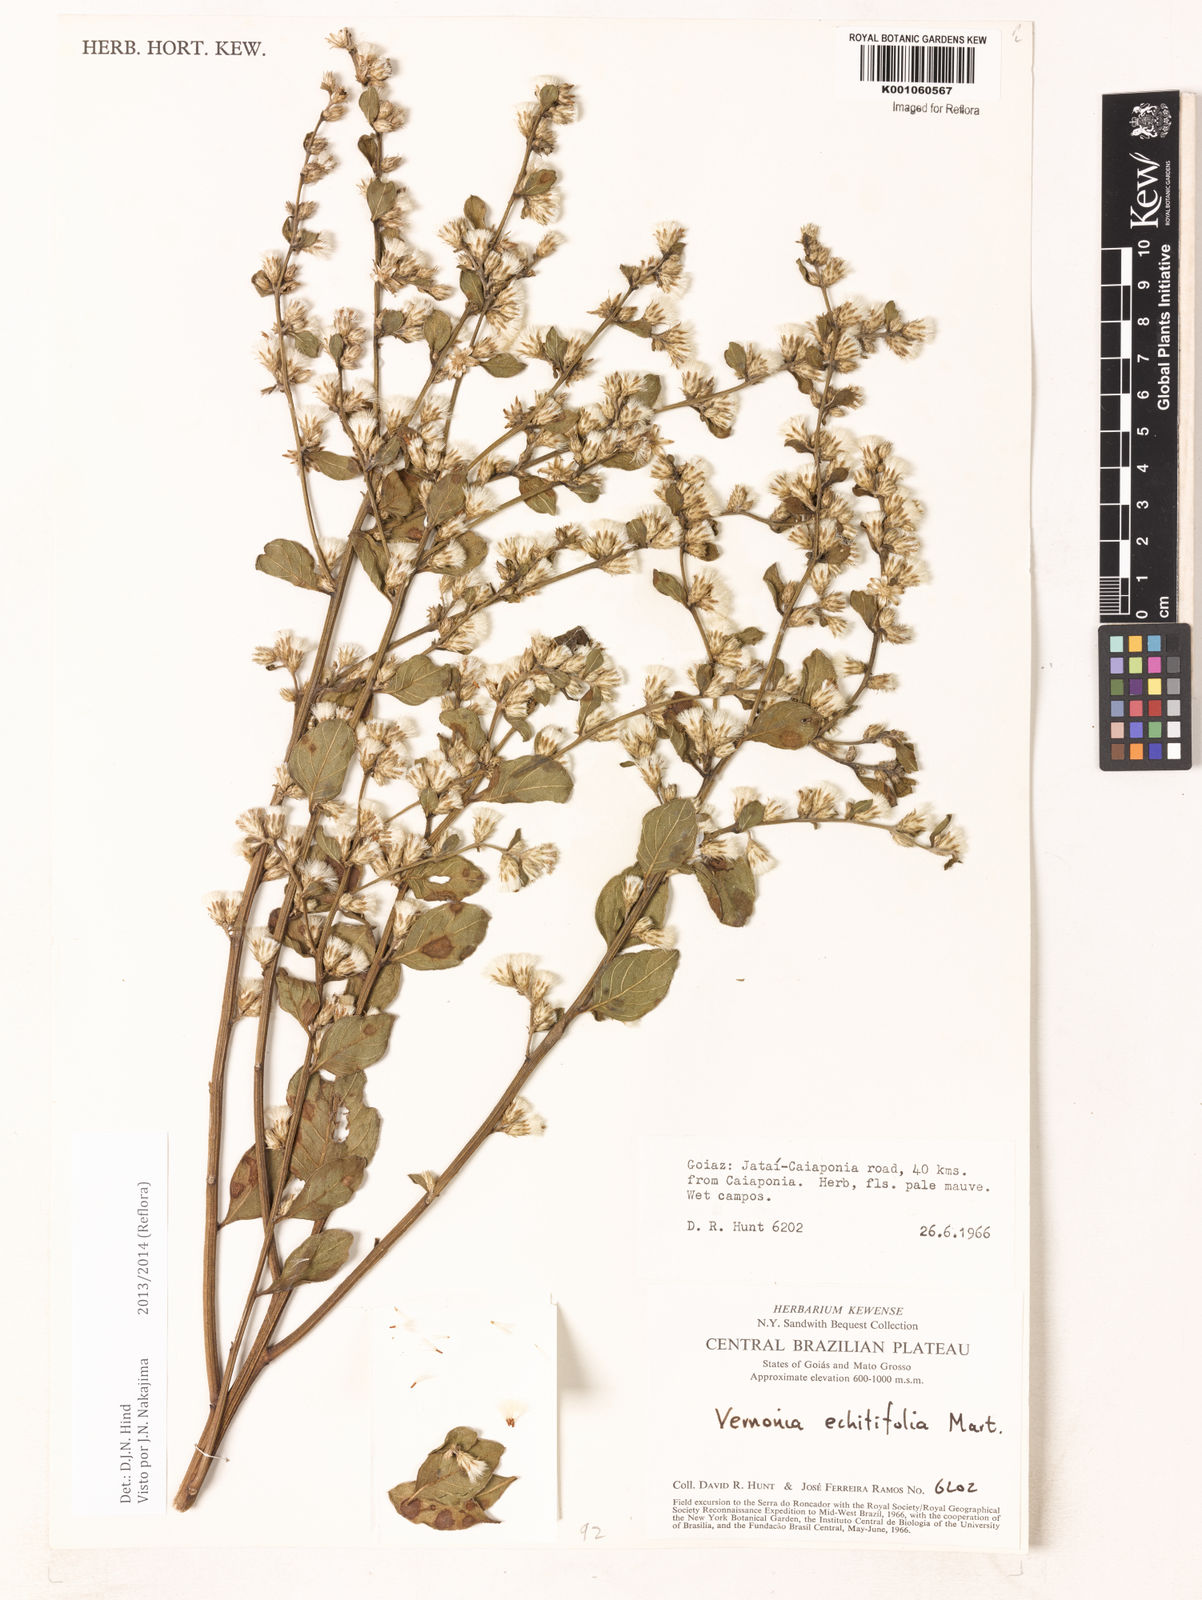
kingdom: Plantae
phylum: Tracheophyta
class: Magnoliopsida
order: Asterales
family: Asteraceae
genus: Acilepidopsis
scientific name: Acilepidopsis echitifolia
